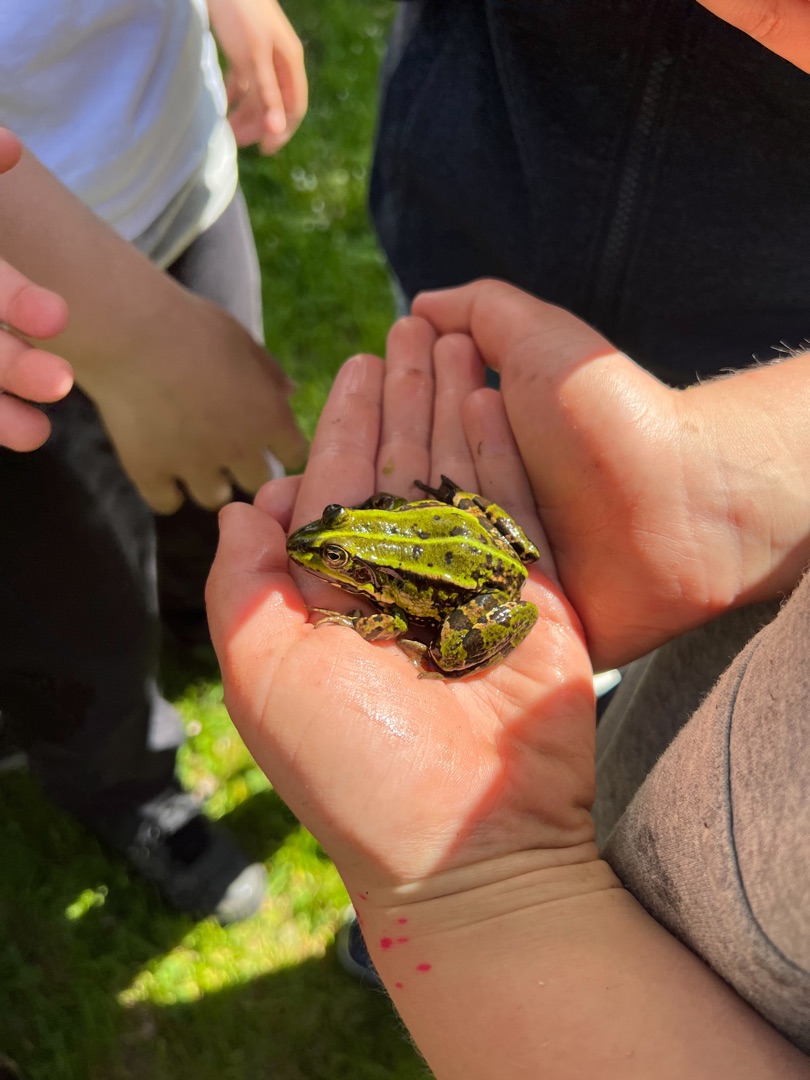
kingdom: Animalia
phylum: Chordata
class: Amphibia
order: Anura
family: Ranidae
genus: Pelophylax
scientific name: Pelophylax lessonae
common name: Grøn frø
